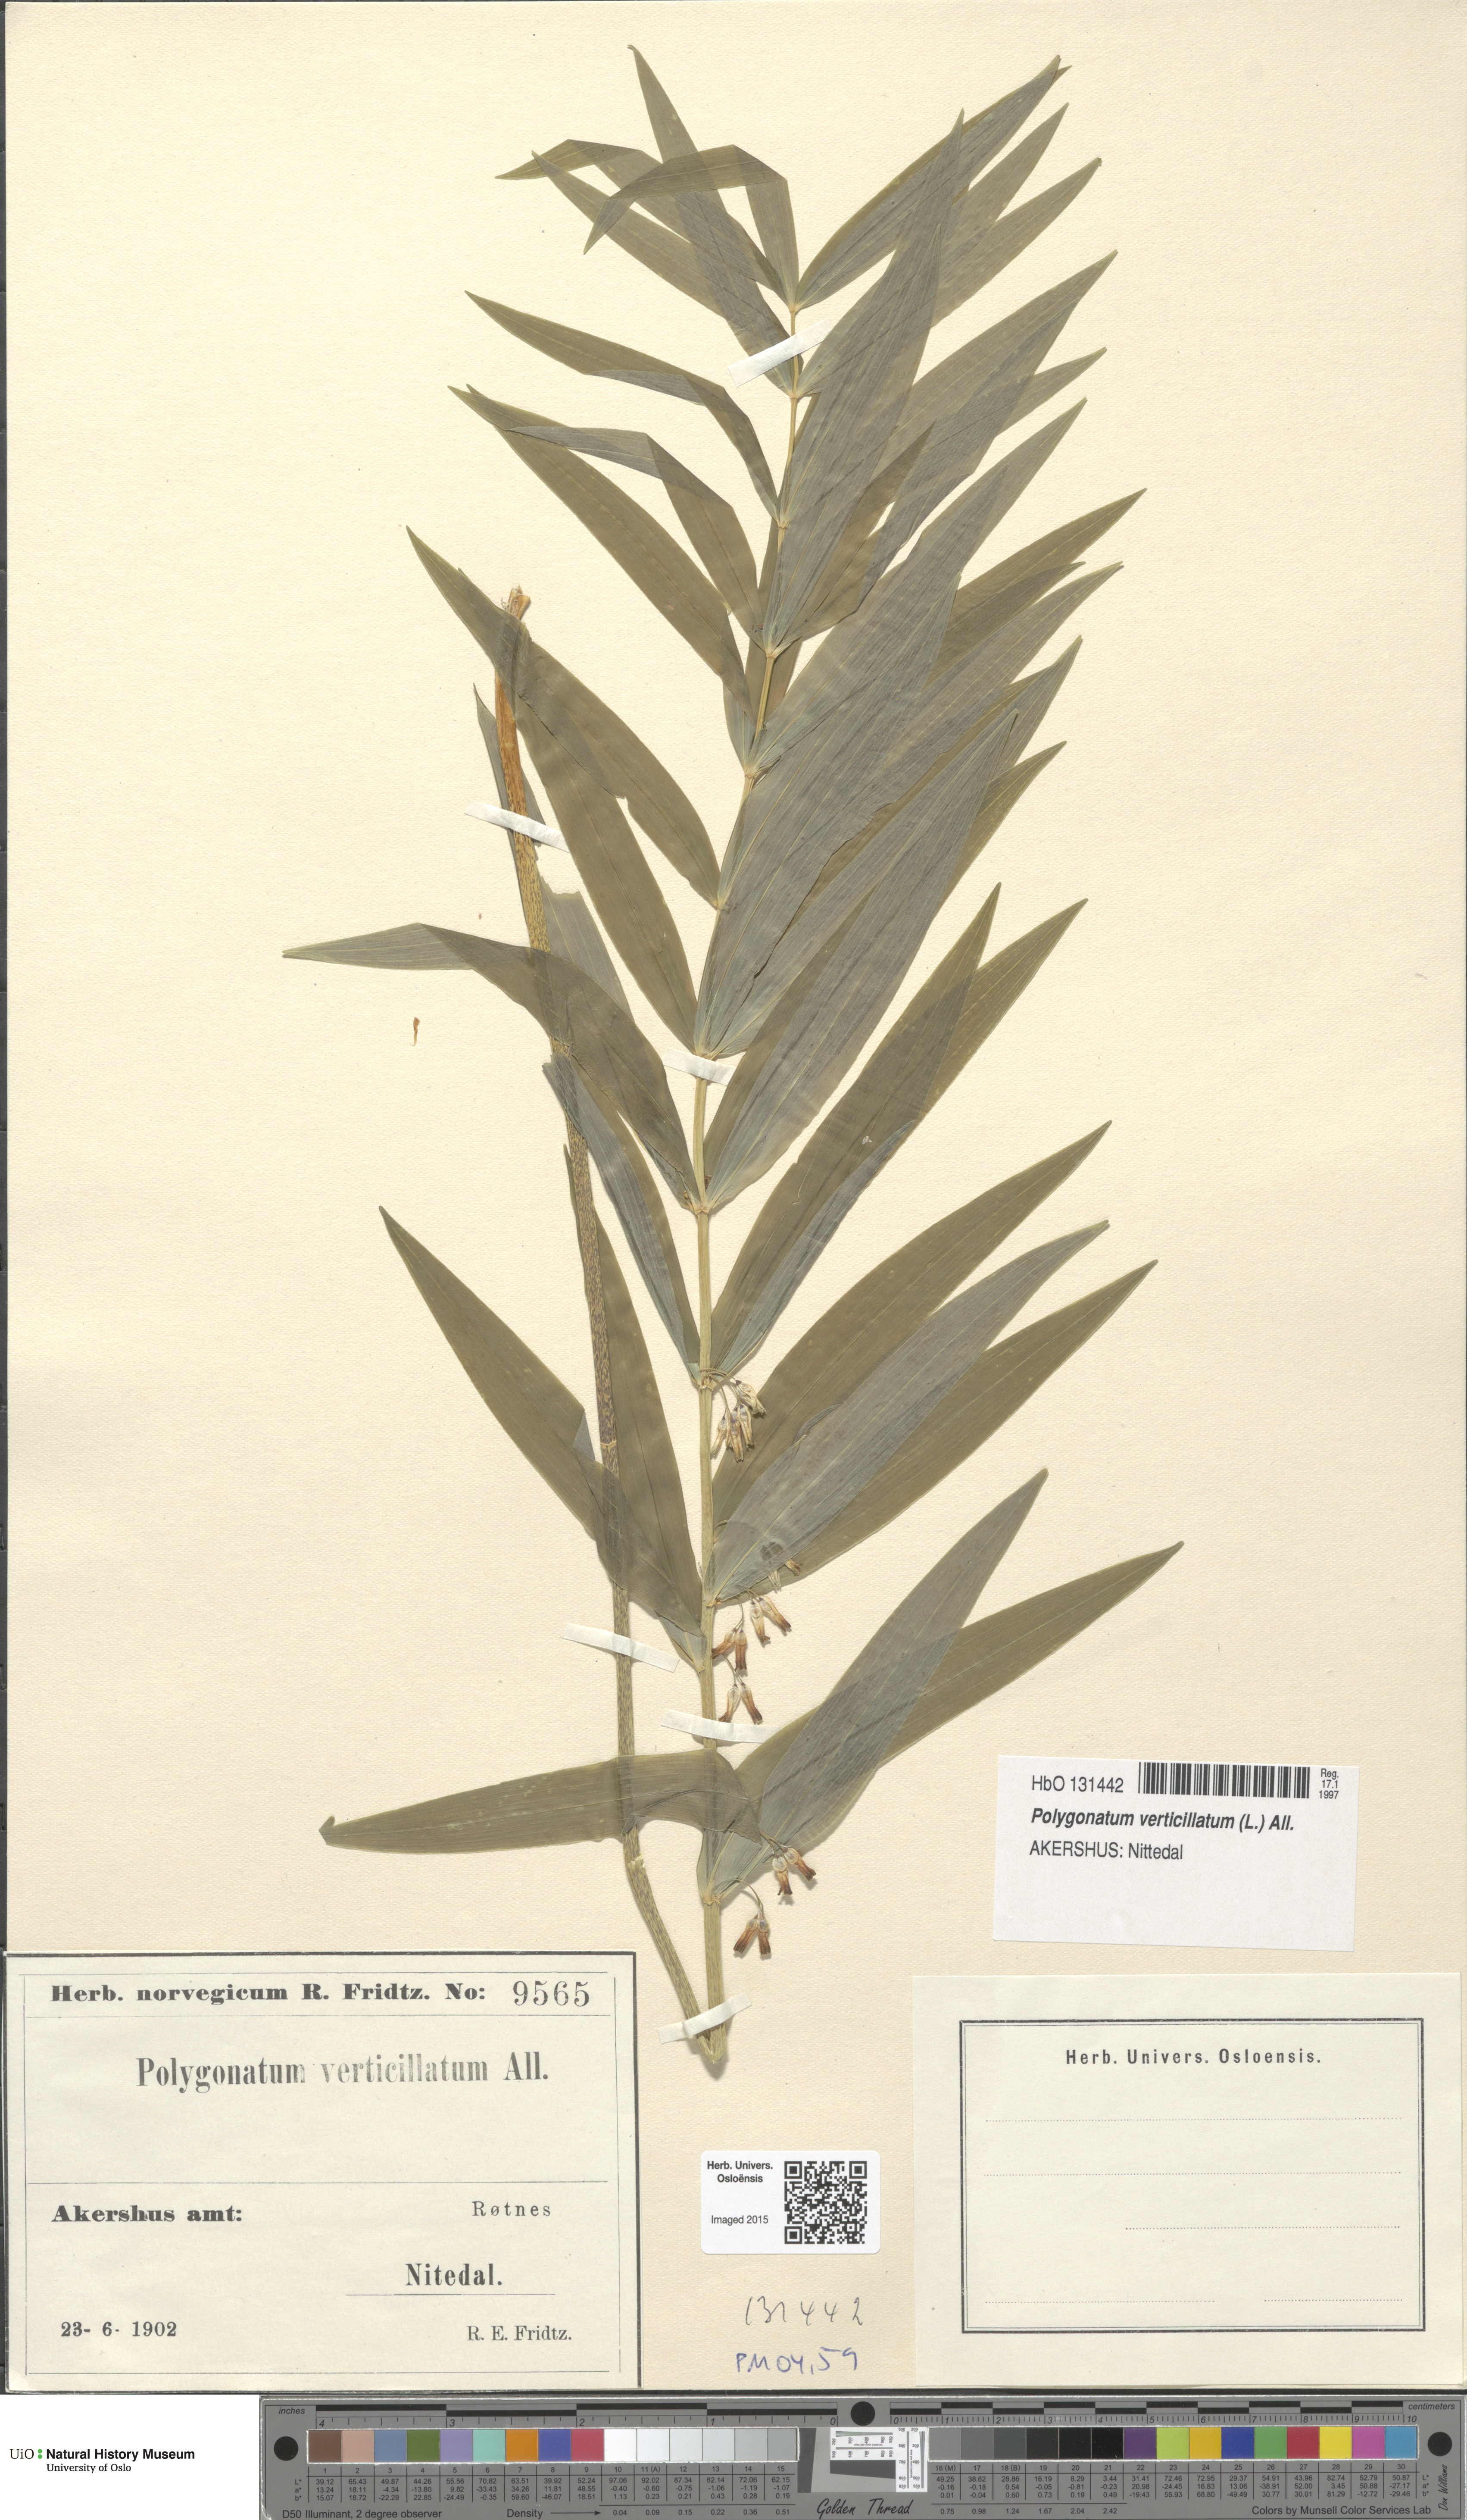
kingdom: Plantae
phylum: Tracheophyta
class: Liliopsida
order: Asparagales
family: Asparagaceae
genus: Polygonatum
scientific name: Polygonatum verticillatum
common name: Whorled solomon's-seal
